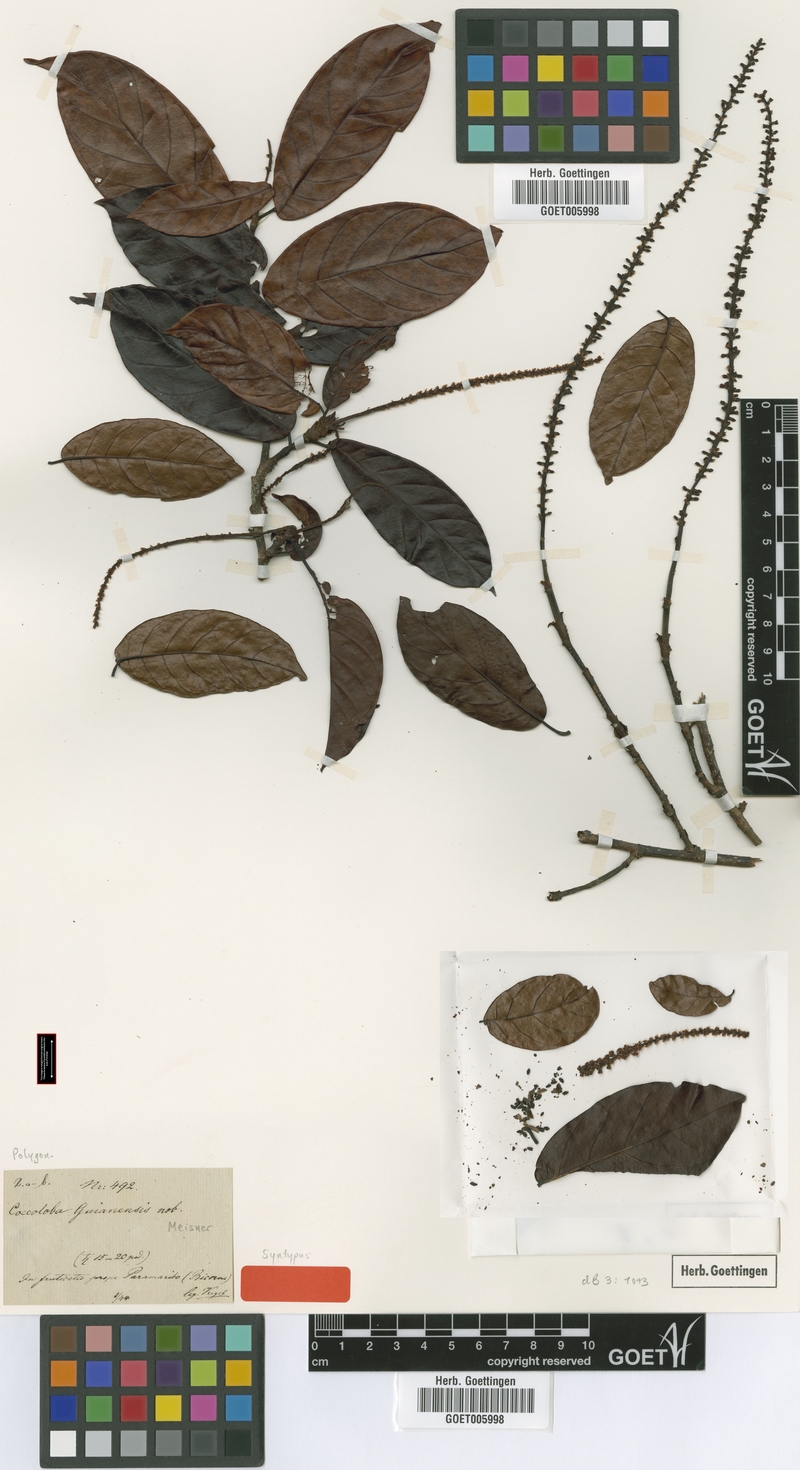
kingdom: Plantae
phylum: Tracheophyta
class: Magnoliopsida
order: Caryophyllales
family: Polygonaceae
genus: Coccoloba
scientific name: Coccoloba nitida
